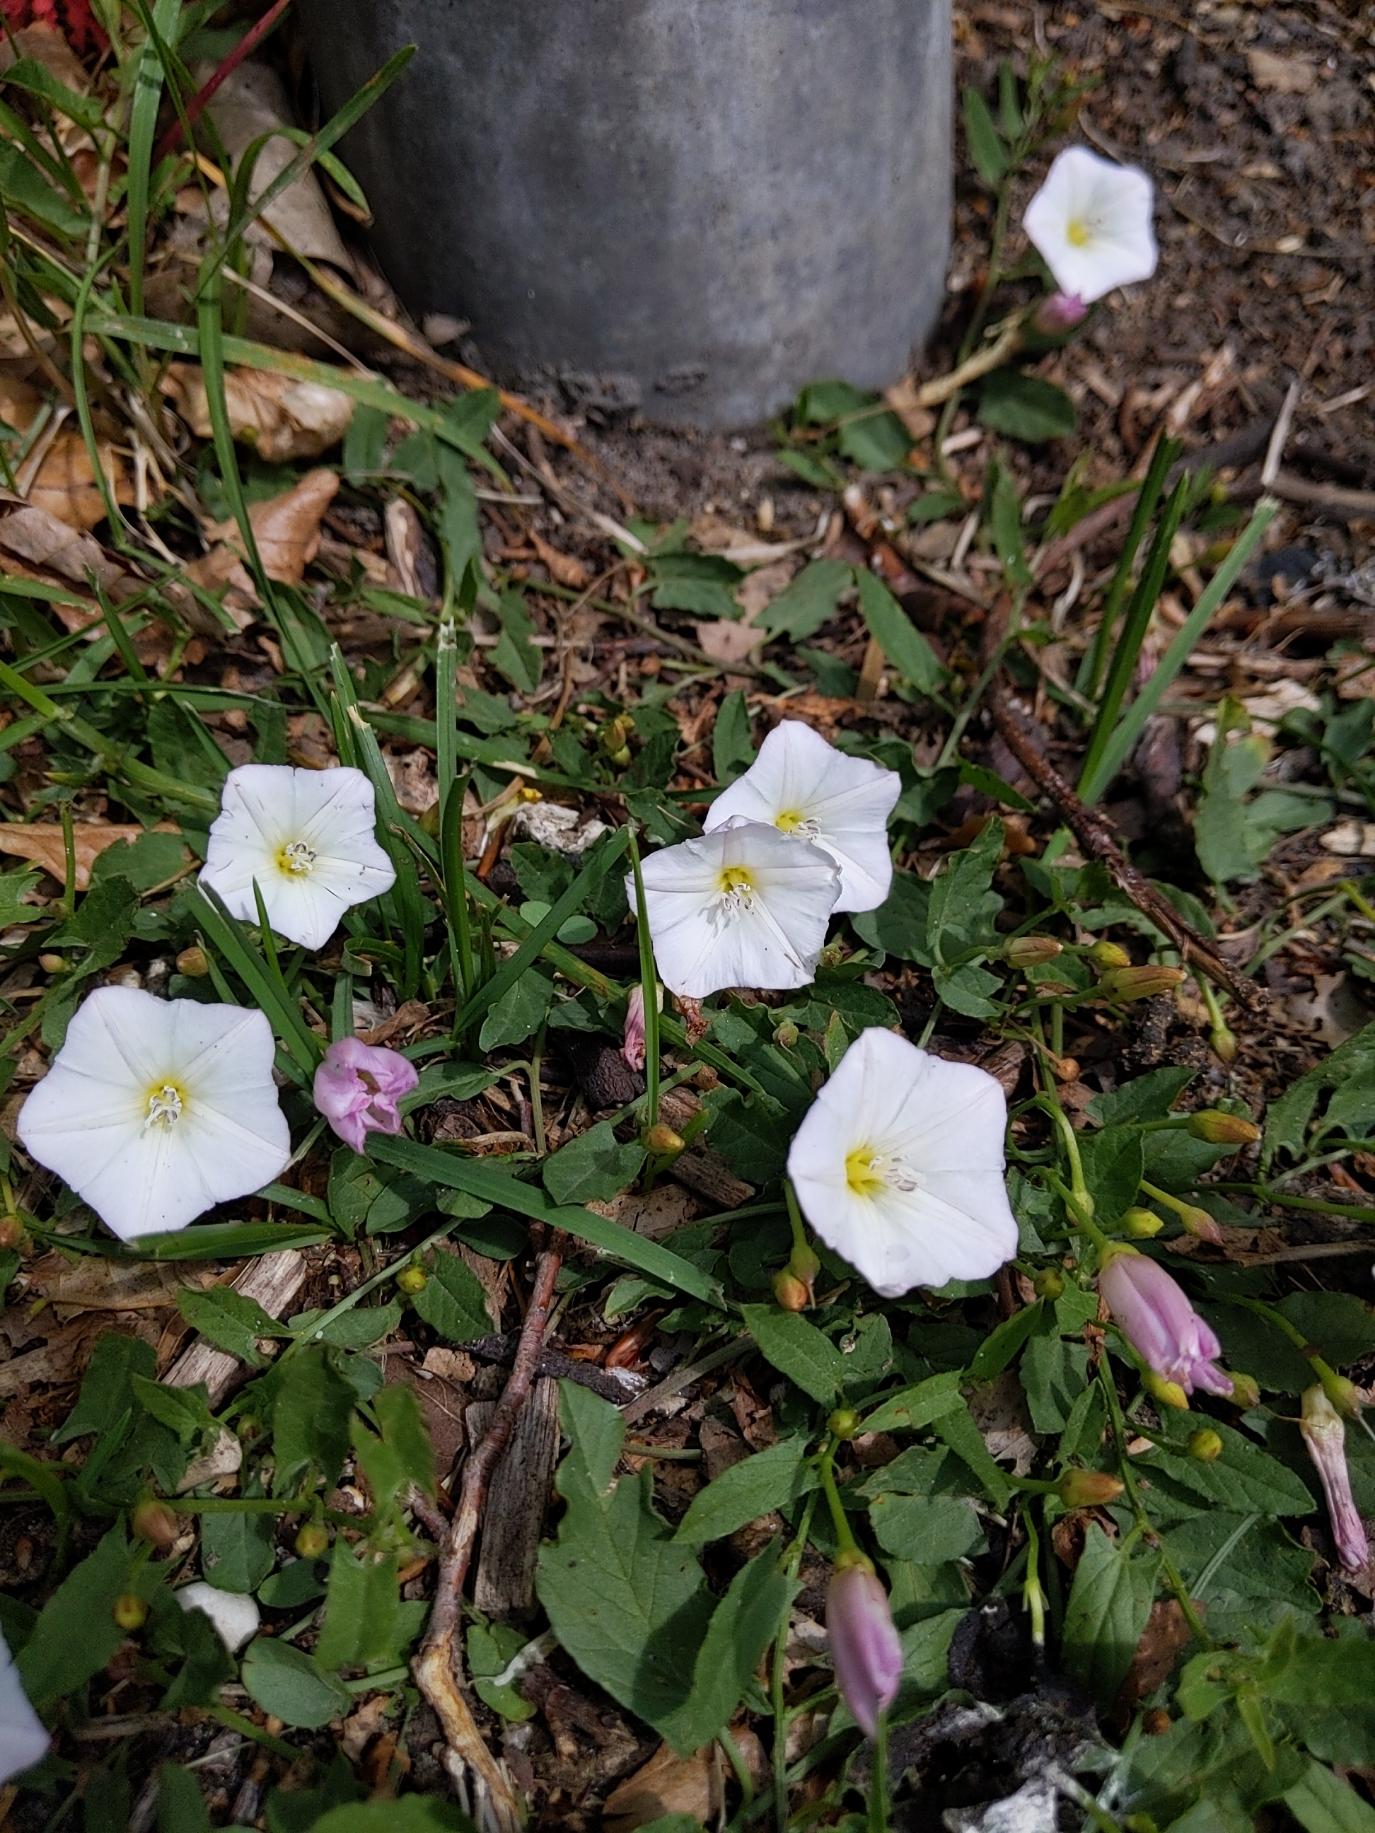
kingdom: Plantae
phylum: Tracheophyta
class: Magnoliopsida
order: Solanales
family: Convolvulaceae
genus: Convolvulus
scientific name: Convolvulus arvensis
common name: Ager-snerle
